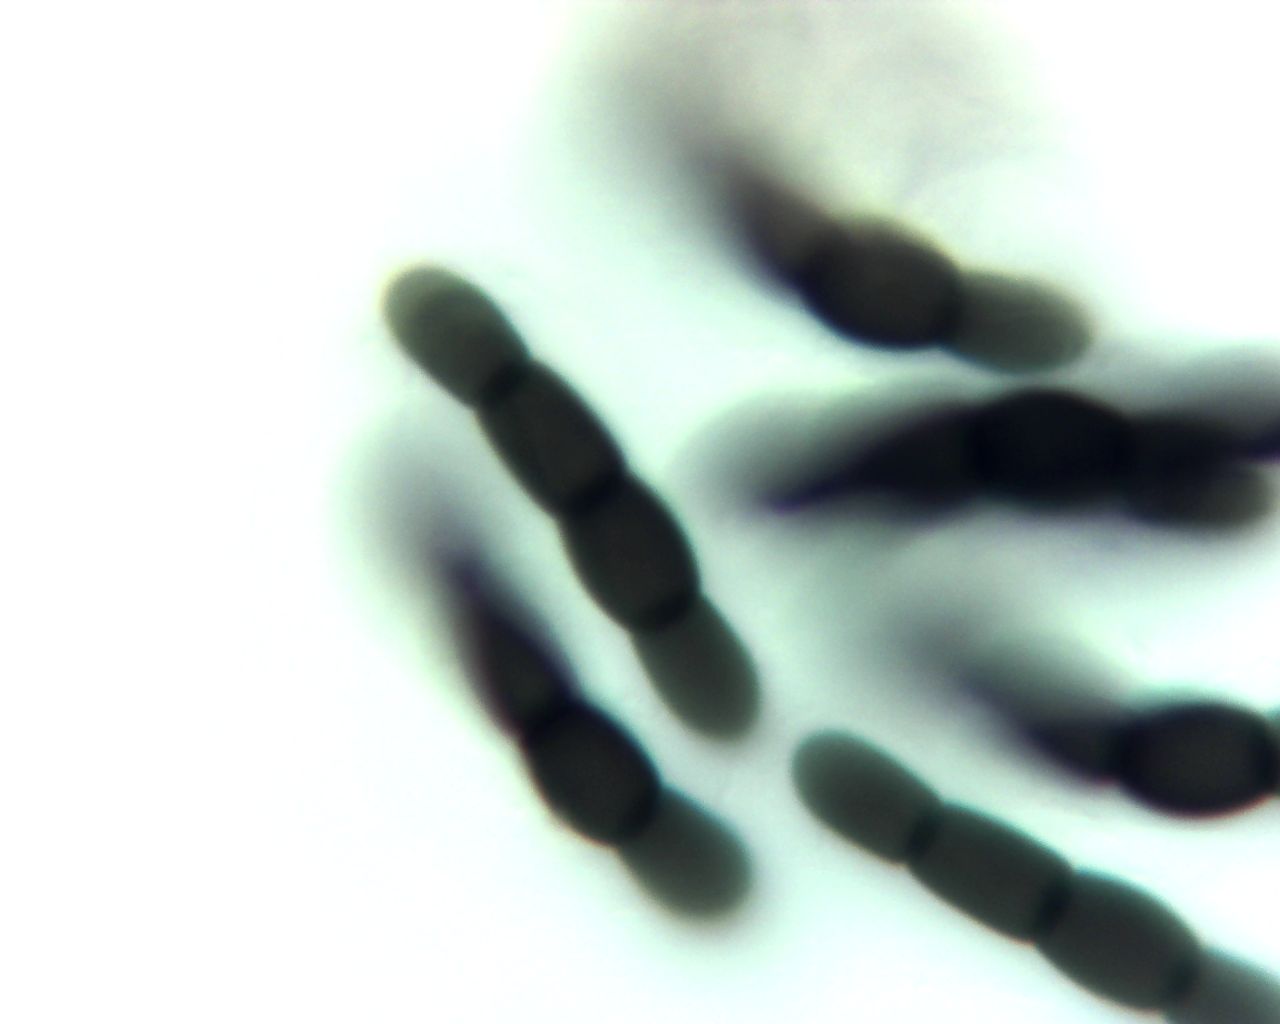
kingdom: Fungi
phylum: Ascomycota
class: Dothideomycetes
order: Pleosporales
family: Sporormiaceae
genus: Sporormiella
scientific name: Sporormiella
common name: knækspore
